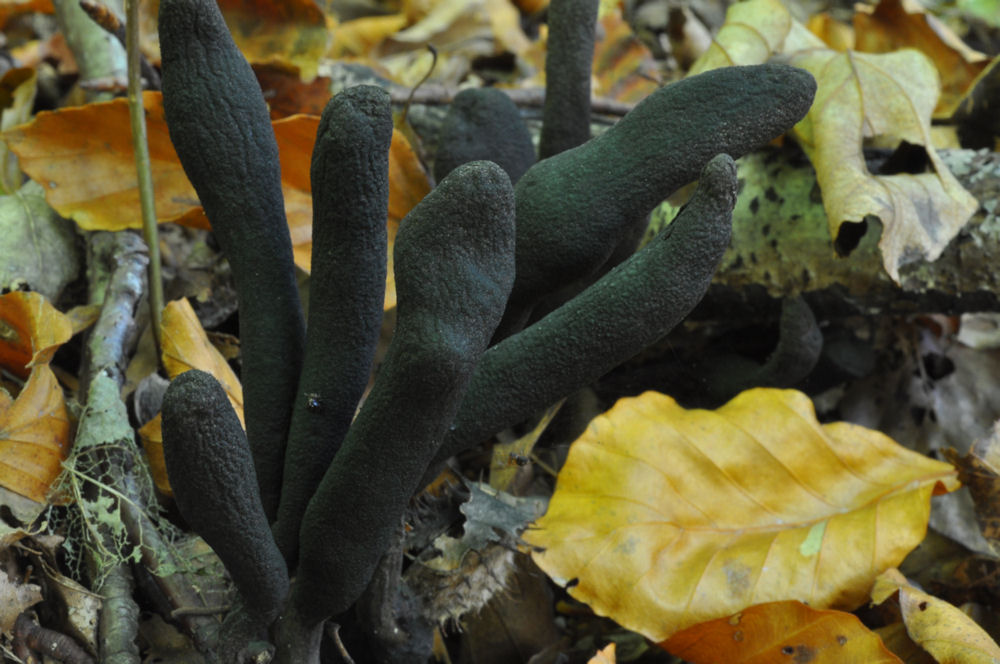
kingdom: Fungi
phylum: Ascomycota
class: Sordariomycetes
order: Xylariales
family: Xylariaceae
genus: Xylaria
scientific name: Xylaria longipes
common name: slank stødsvamp
